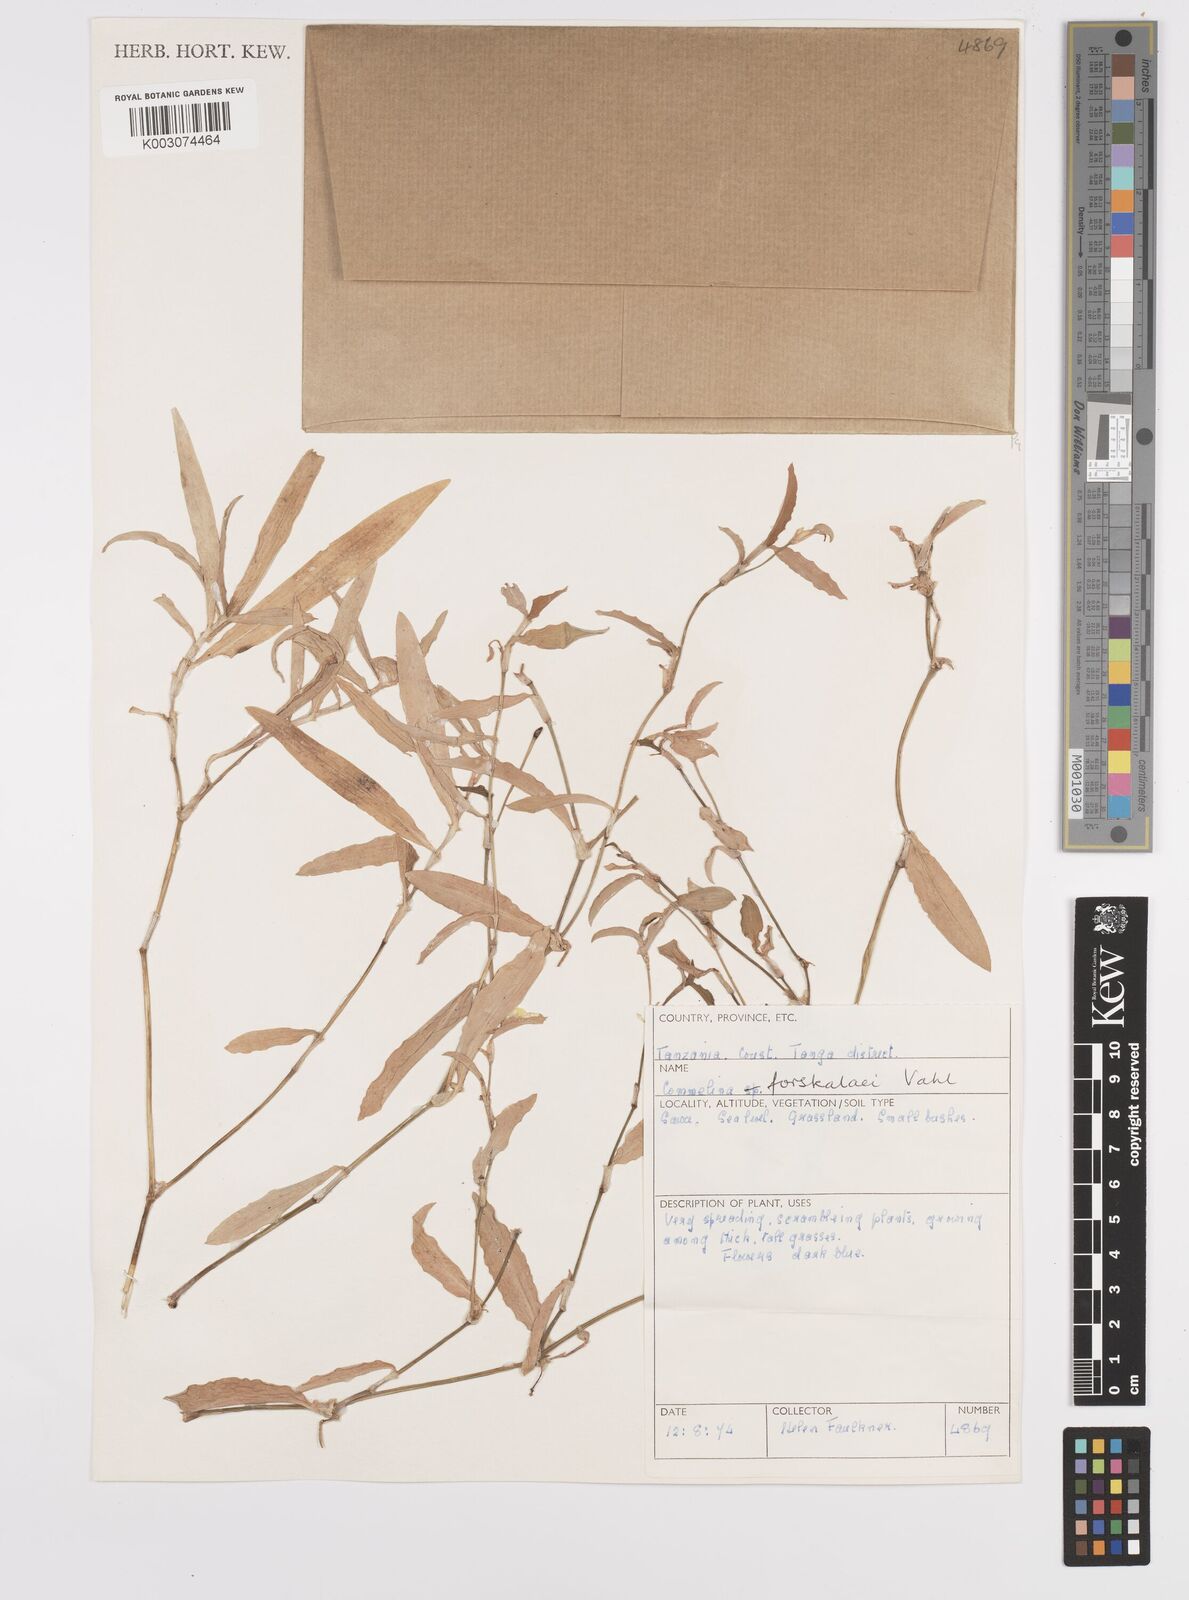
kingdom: Plantae
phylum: Tracheophyta
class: Liliopsida
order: Commelinales
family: Commelinaceae
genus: Commelina
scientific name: Commelina forskaolii
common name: Rat's ear
